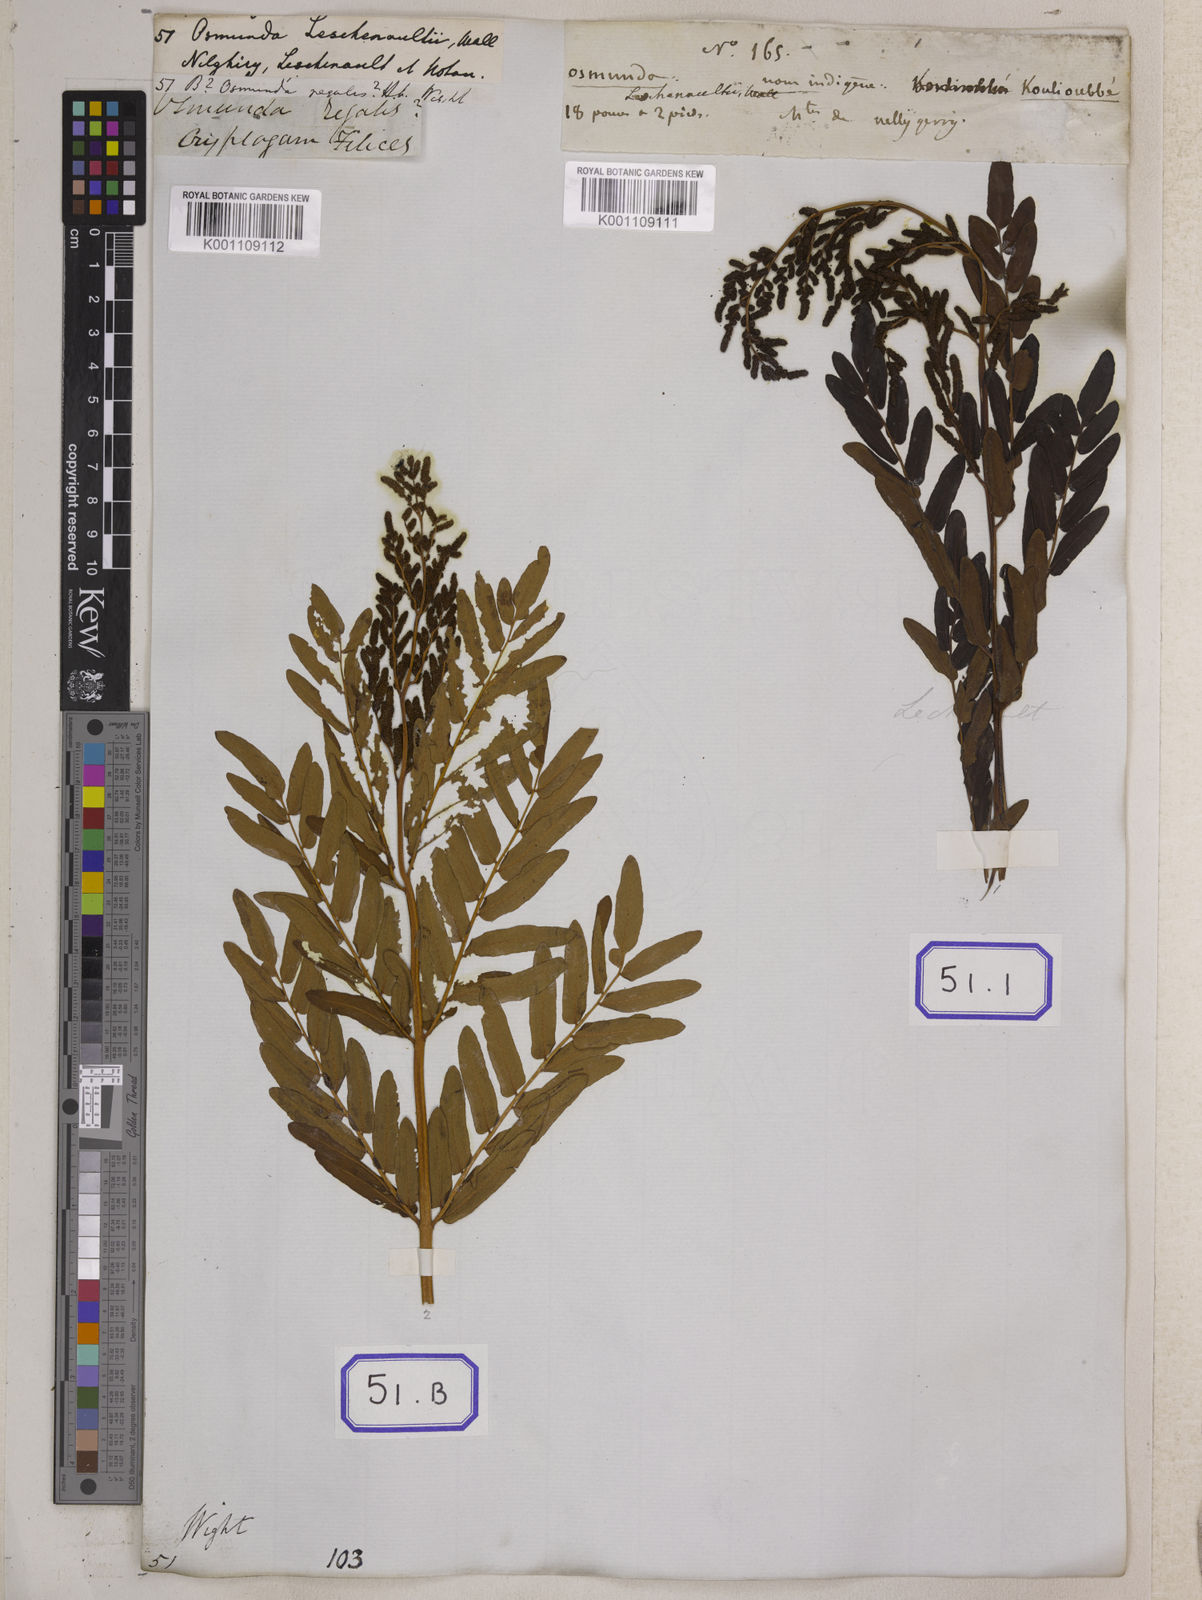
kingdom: Plantae
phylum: Tracheophyta
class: Polypodiopsida
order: Osmundales
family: Osmundaceae
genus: Osmunda
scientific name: Osmunda regalis
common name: Royal fern
